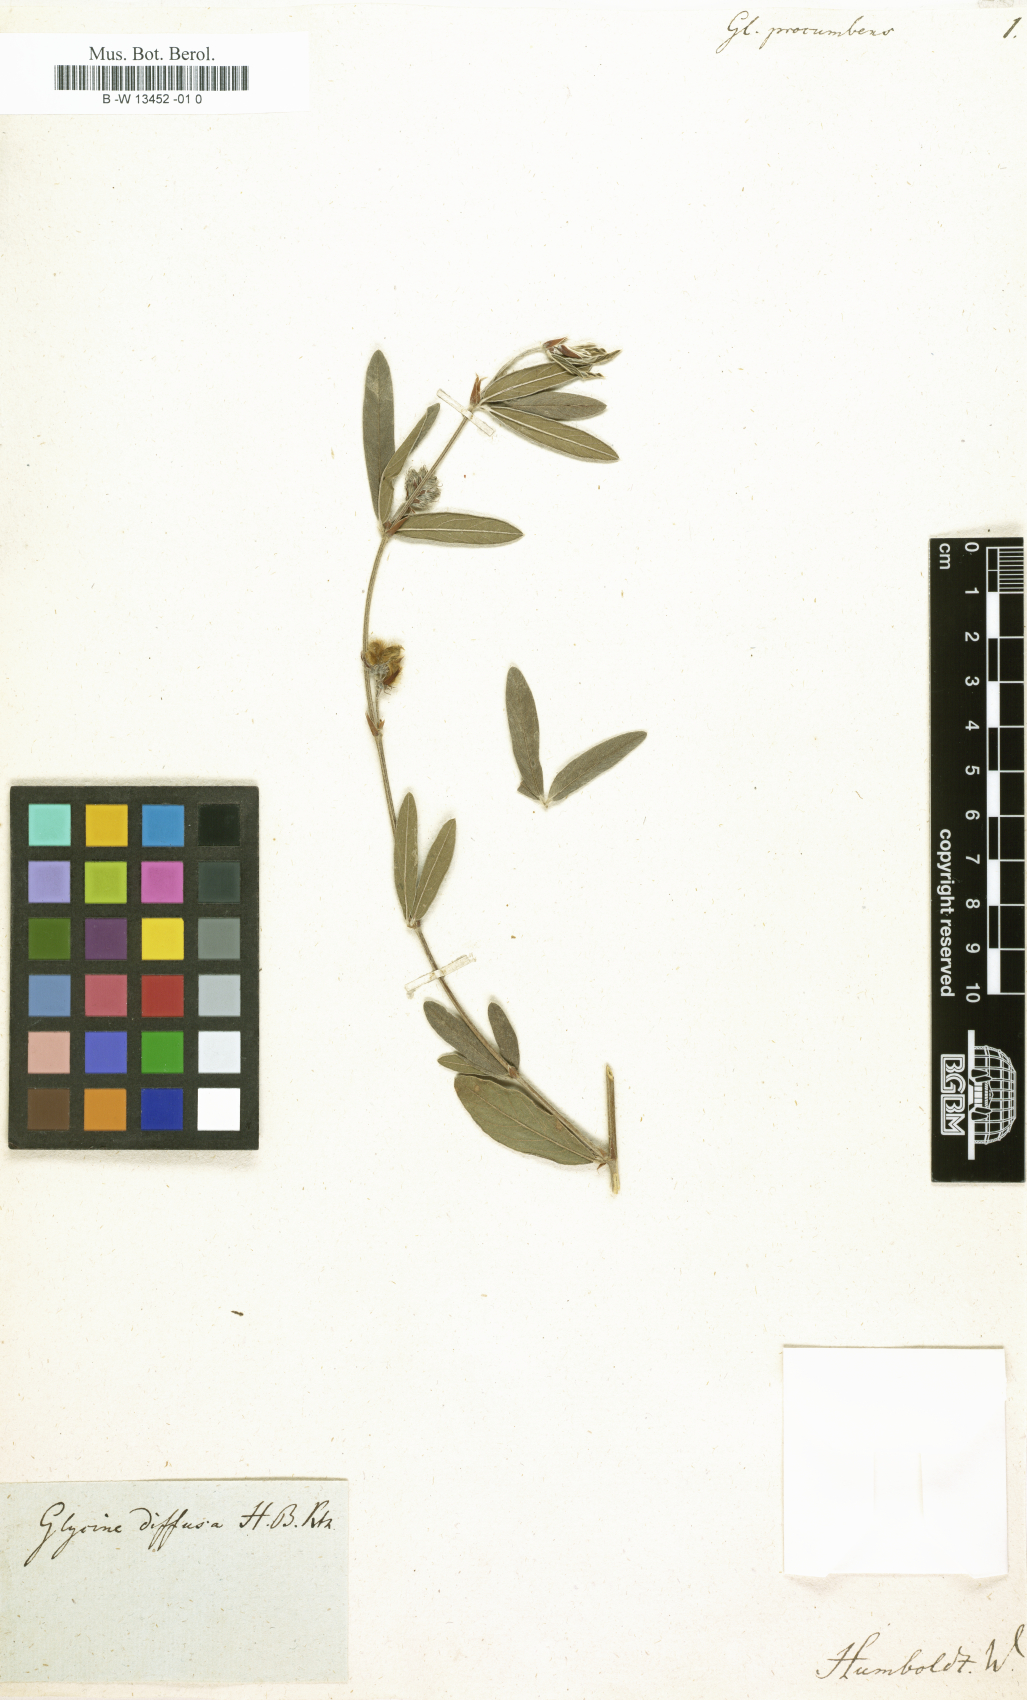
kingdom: Plantae
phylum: Tracheophyta
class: Magnoliopsida
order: Fabales
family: Fabaceae
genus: Eriosema
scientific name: Eriosema diffusum
